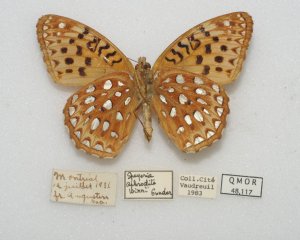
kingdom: Animalia
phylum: Arthropoda
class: Insecta
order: Lepidoptera
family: Nymphalidae
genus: Speyeria
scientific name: Speyeria aphrodite
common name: Aphrodite Fritillary
